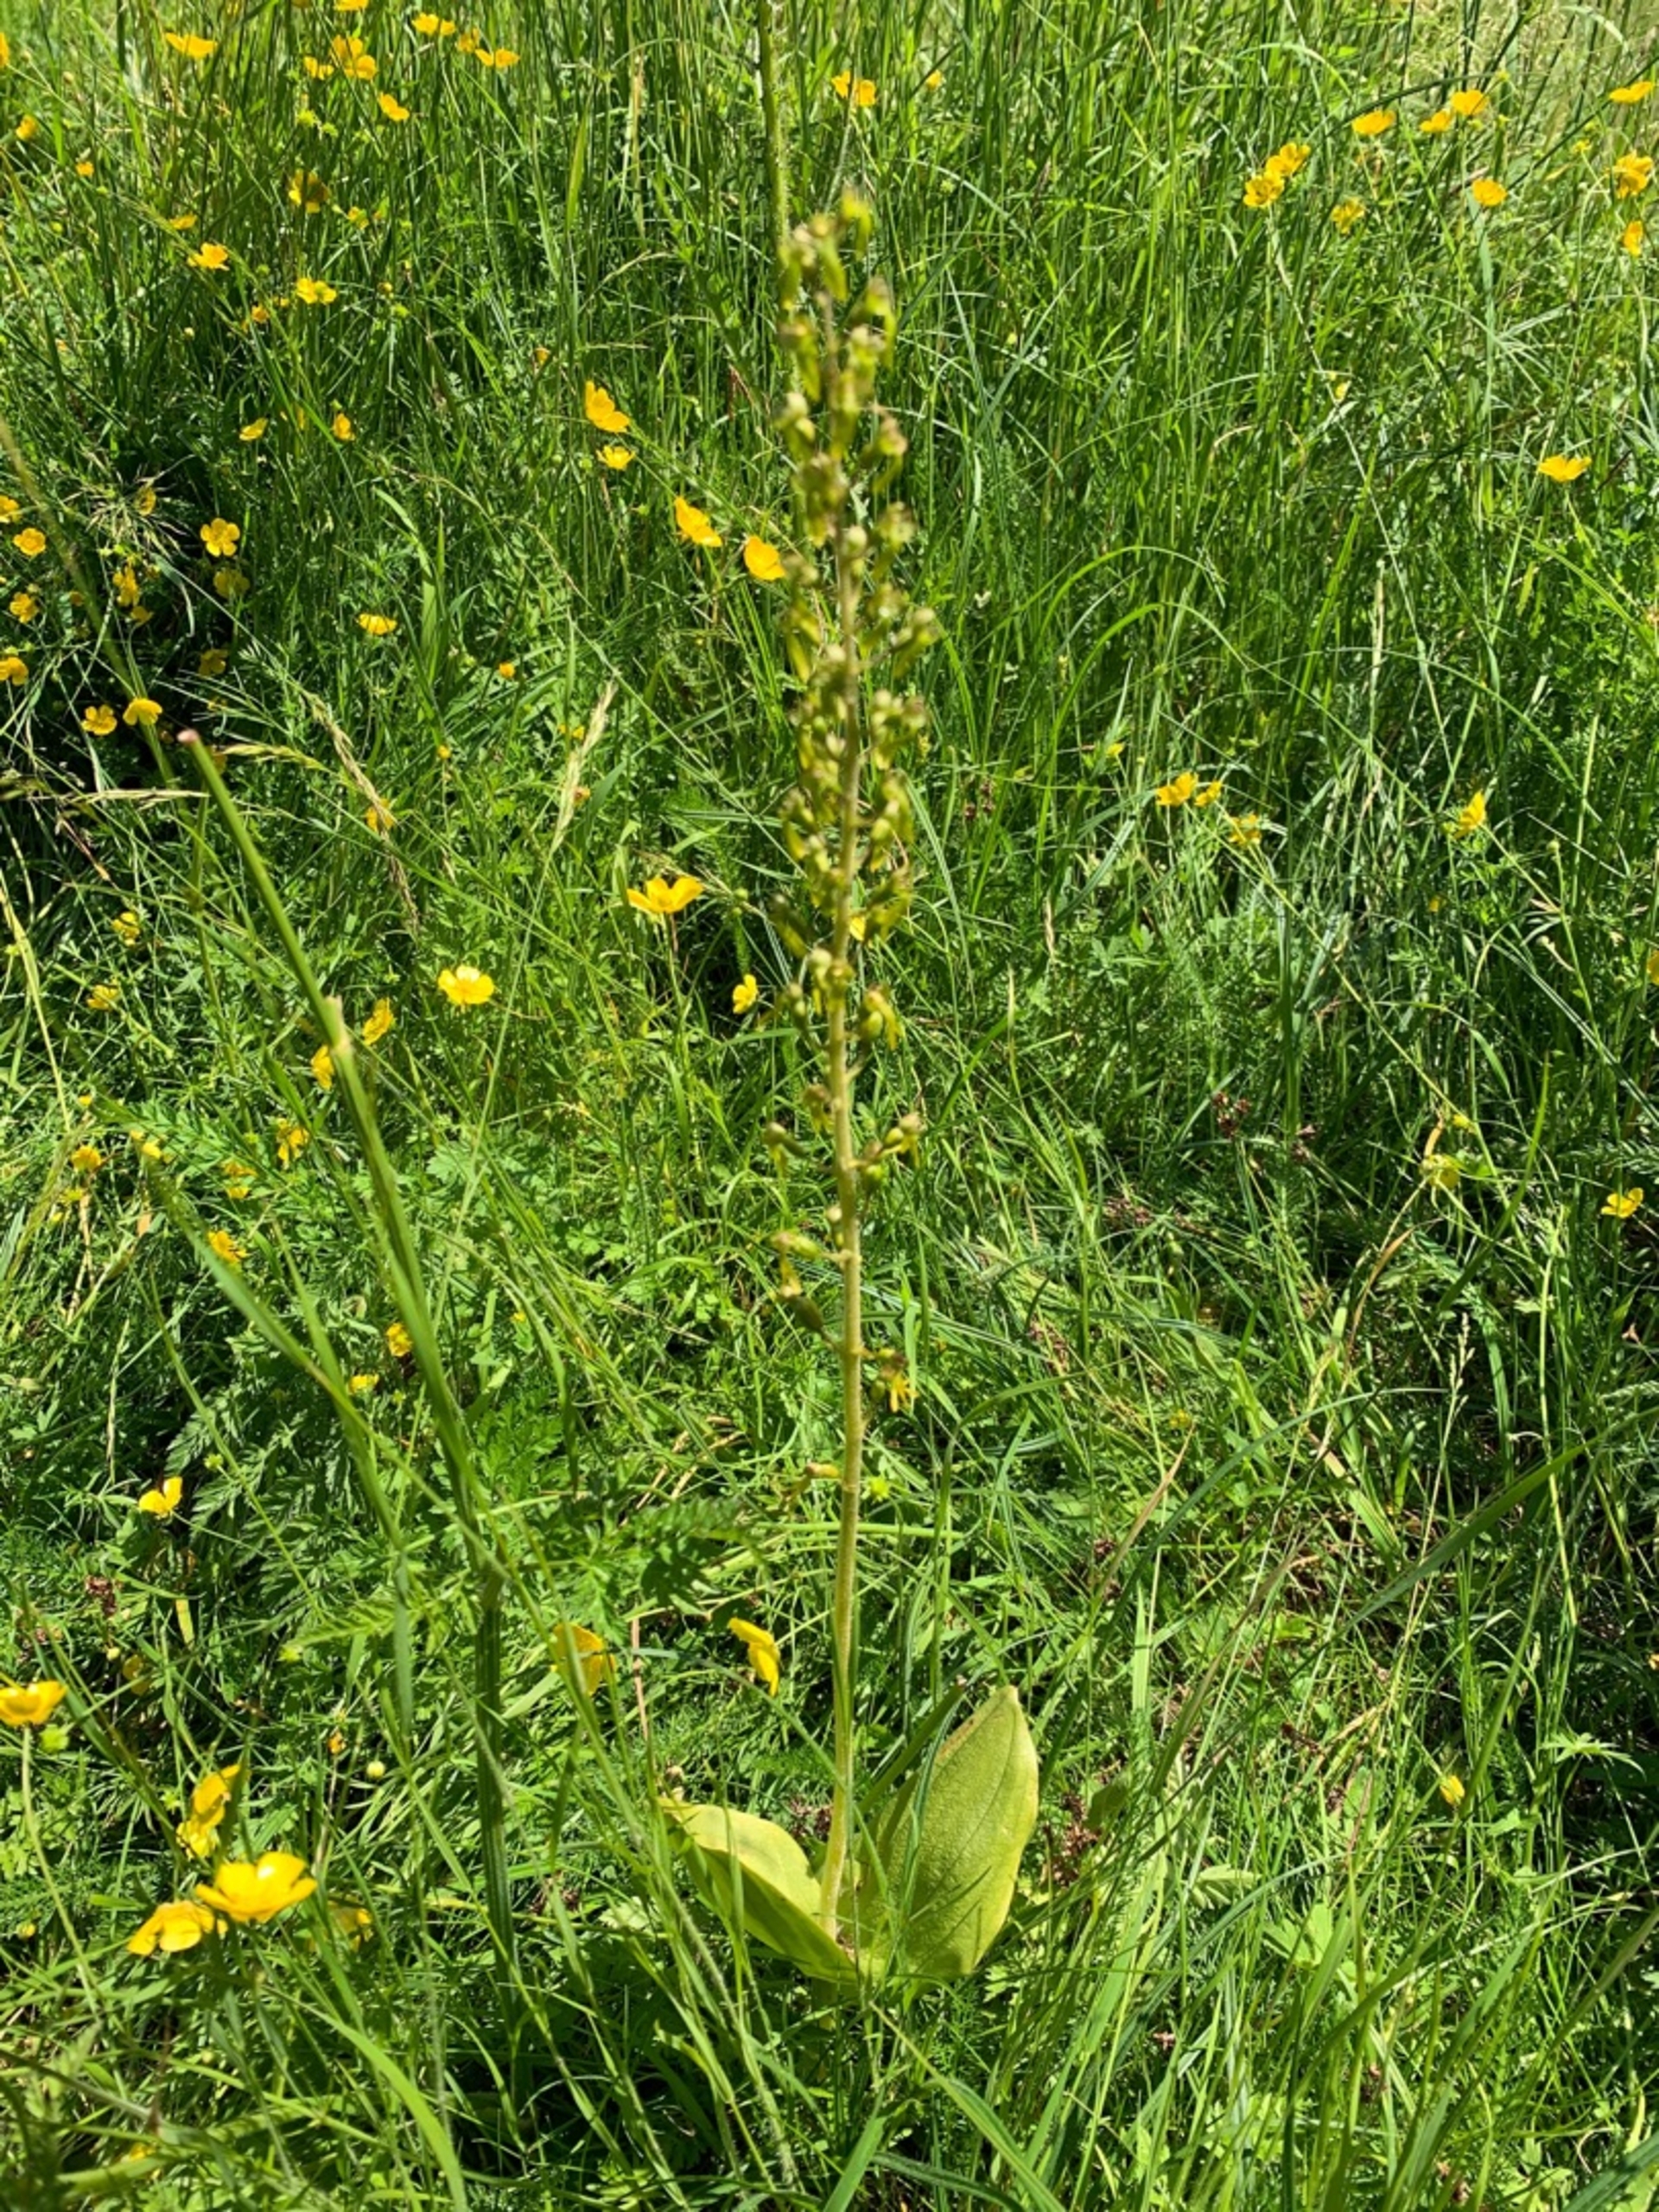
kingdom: Plantae
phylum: Tracheophyta
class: Liliopsida
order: Asparagales
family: Orchidaceae
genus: Neottia
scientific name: Neottia ovata
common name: Ægbladet fliglæbe
